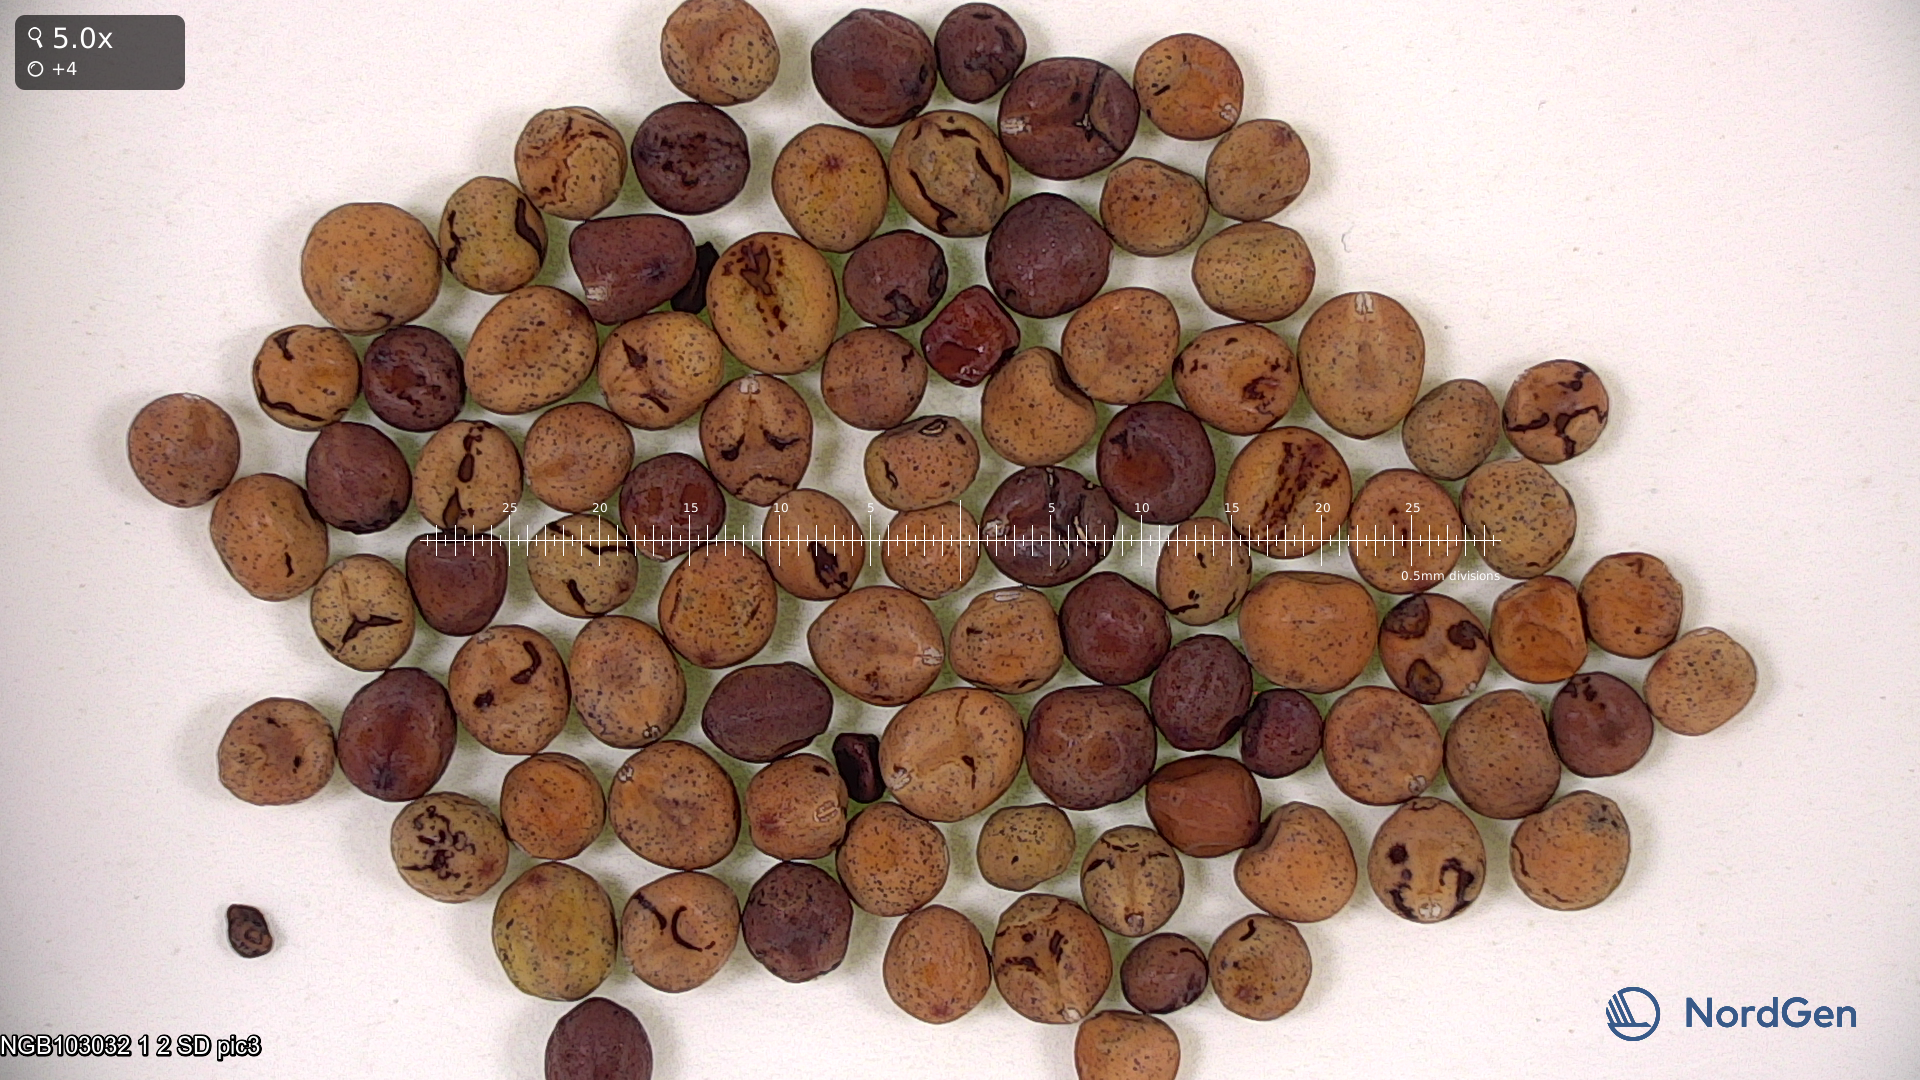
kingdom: Plantae
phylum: Tracheophyta
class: Magnoliopsida
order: Fabales
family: Fabaceae
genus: Lathyrus
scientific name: Lathyrus oleraceus
